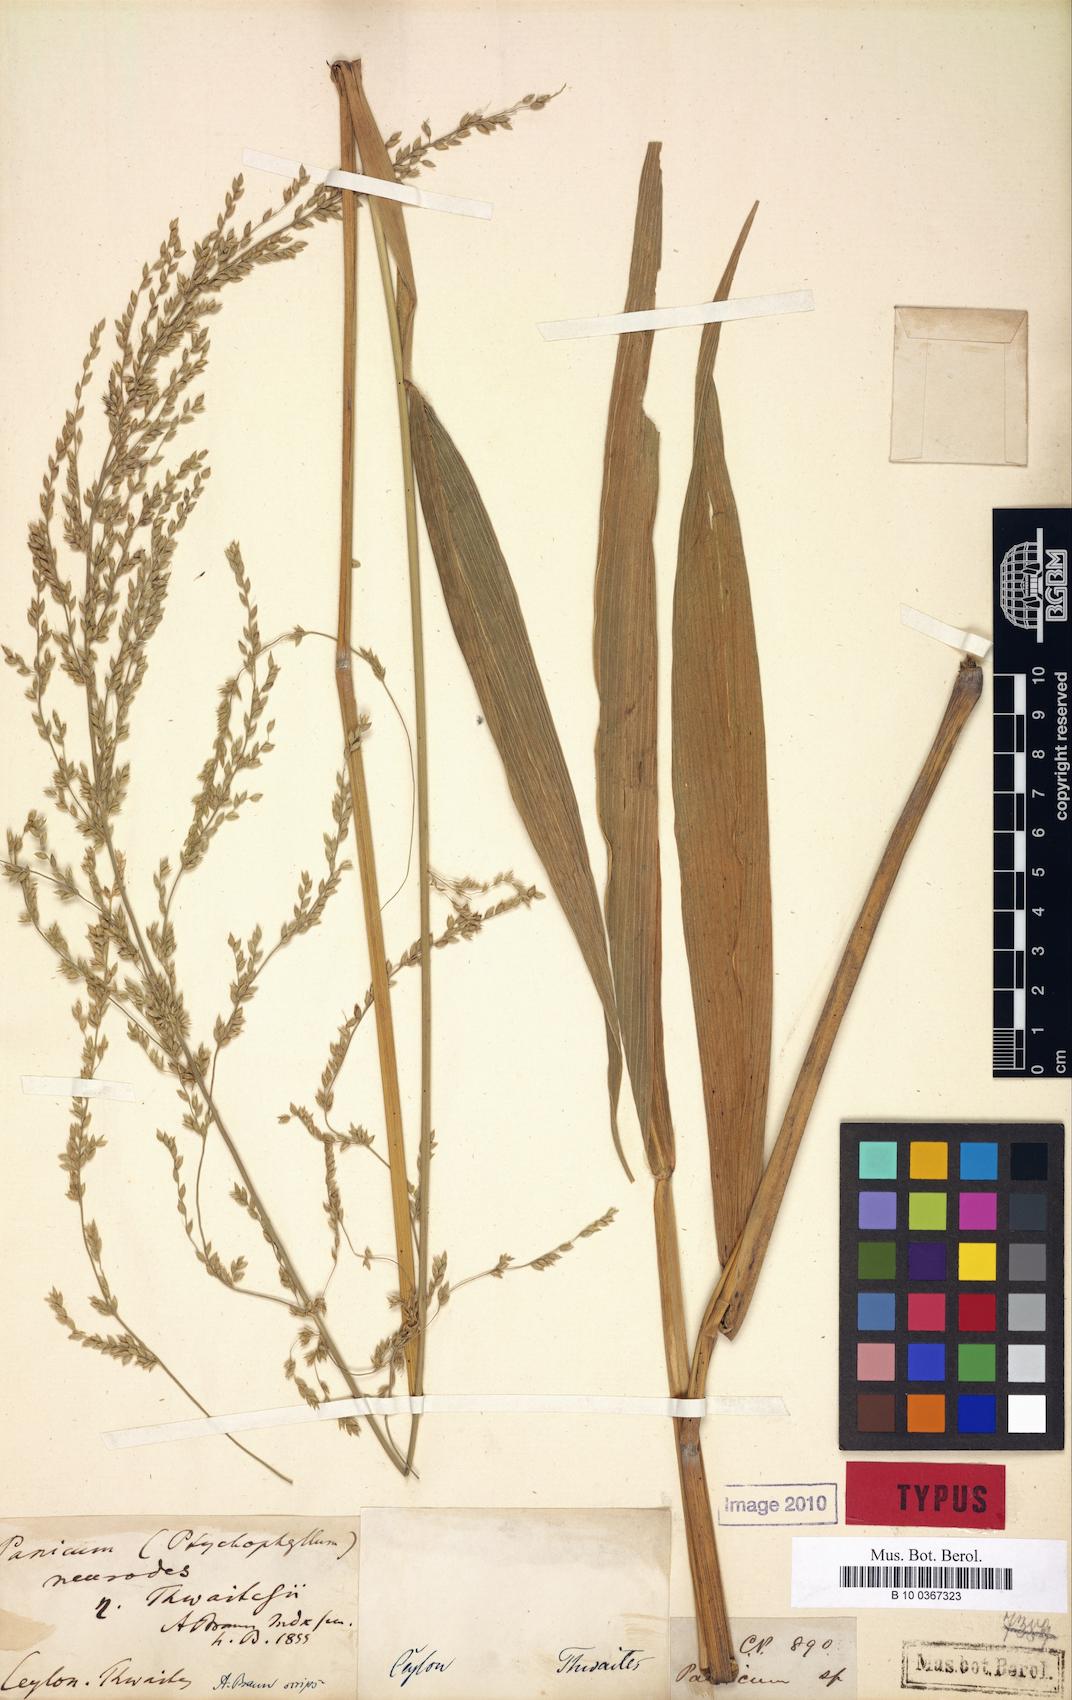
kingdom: Plantae
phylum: Tracheophyta
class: Liliopsida
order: Poales
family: Poaceae
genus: Setaria
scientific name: Setaria palmifolia
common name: Broadleaved bristlegrass
